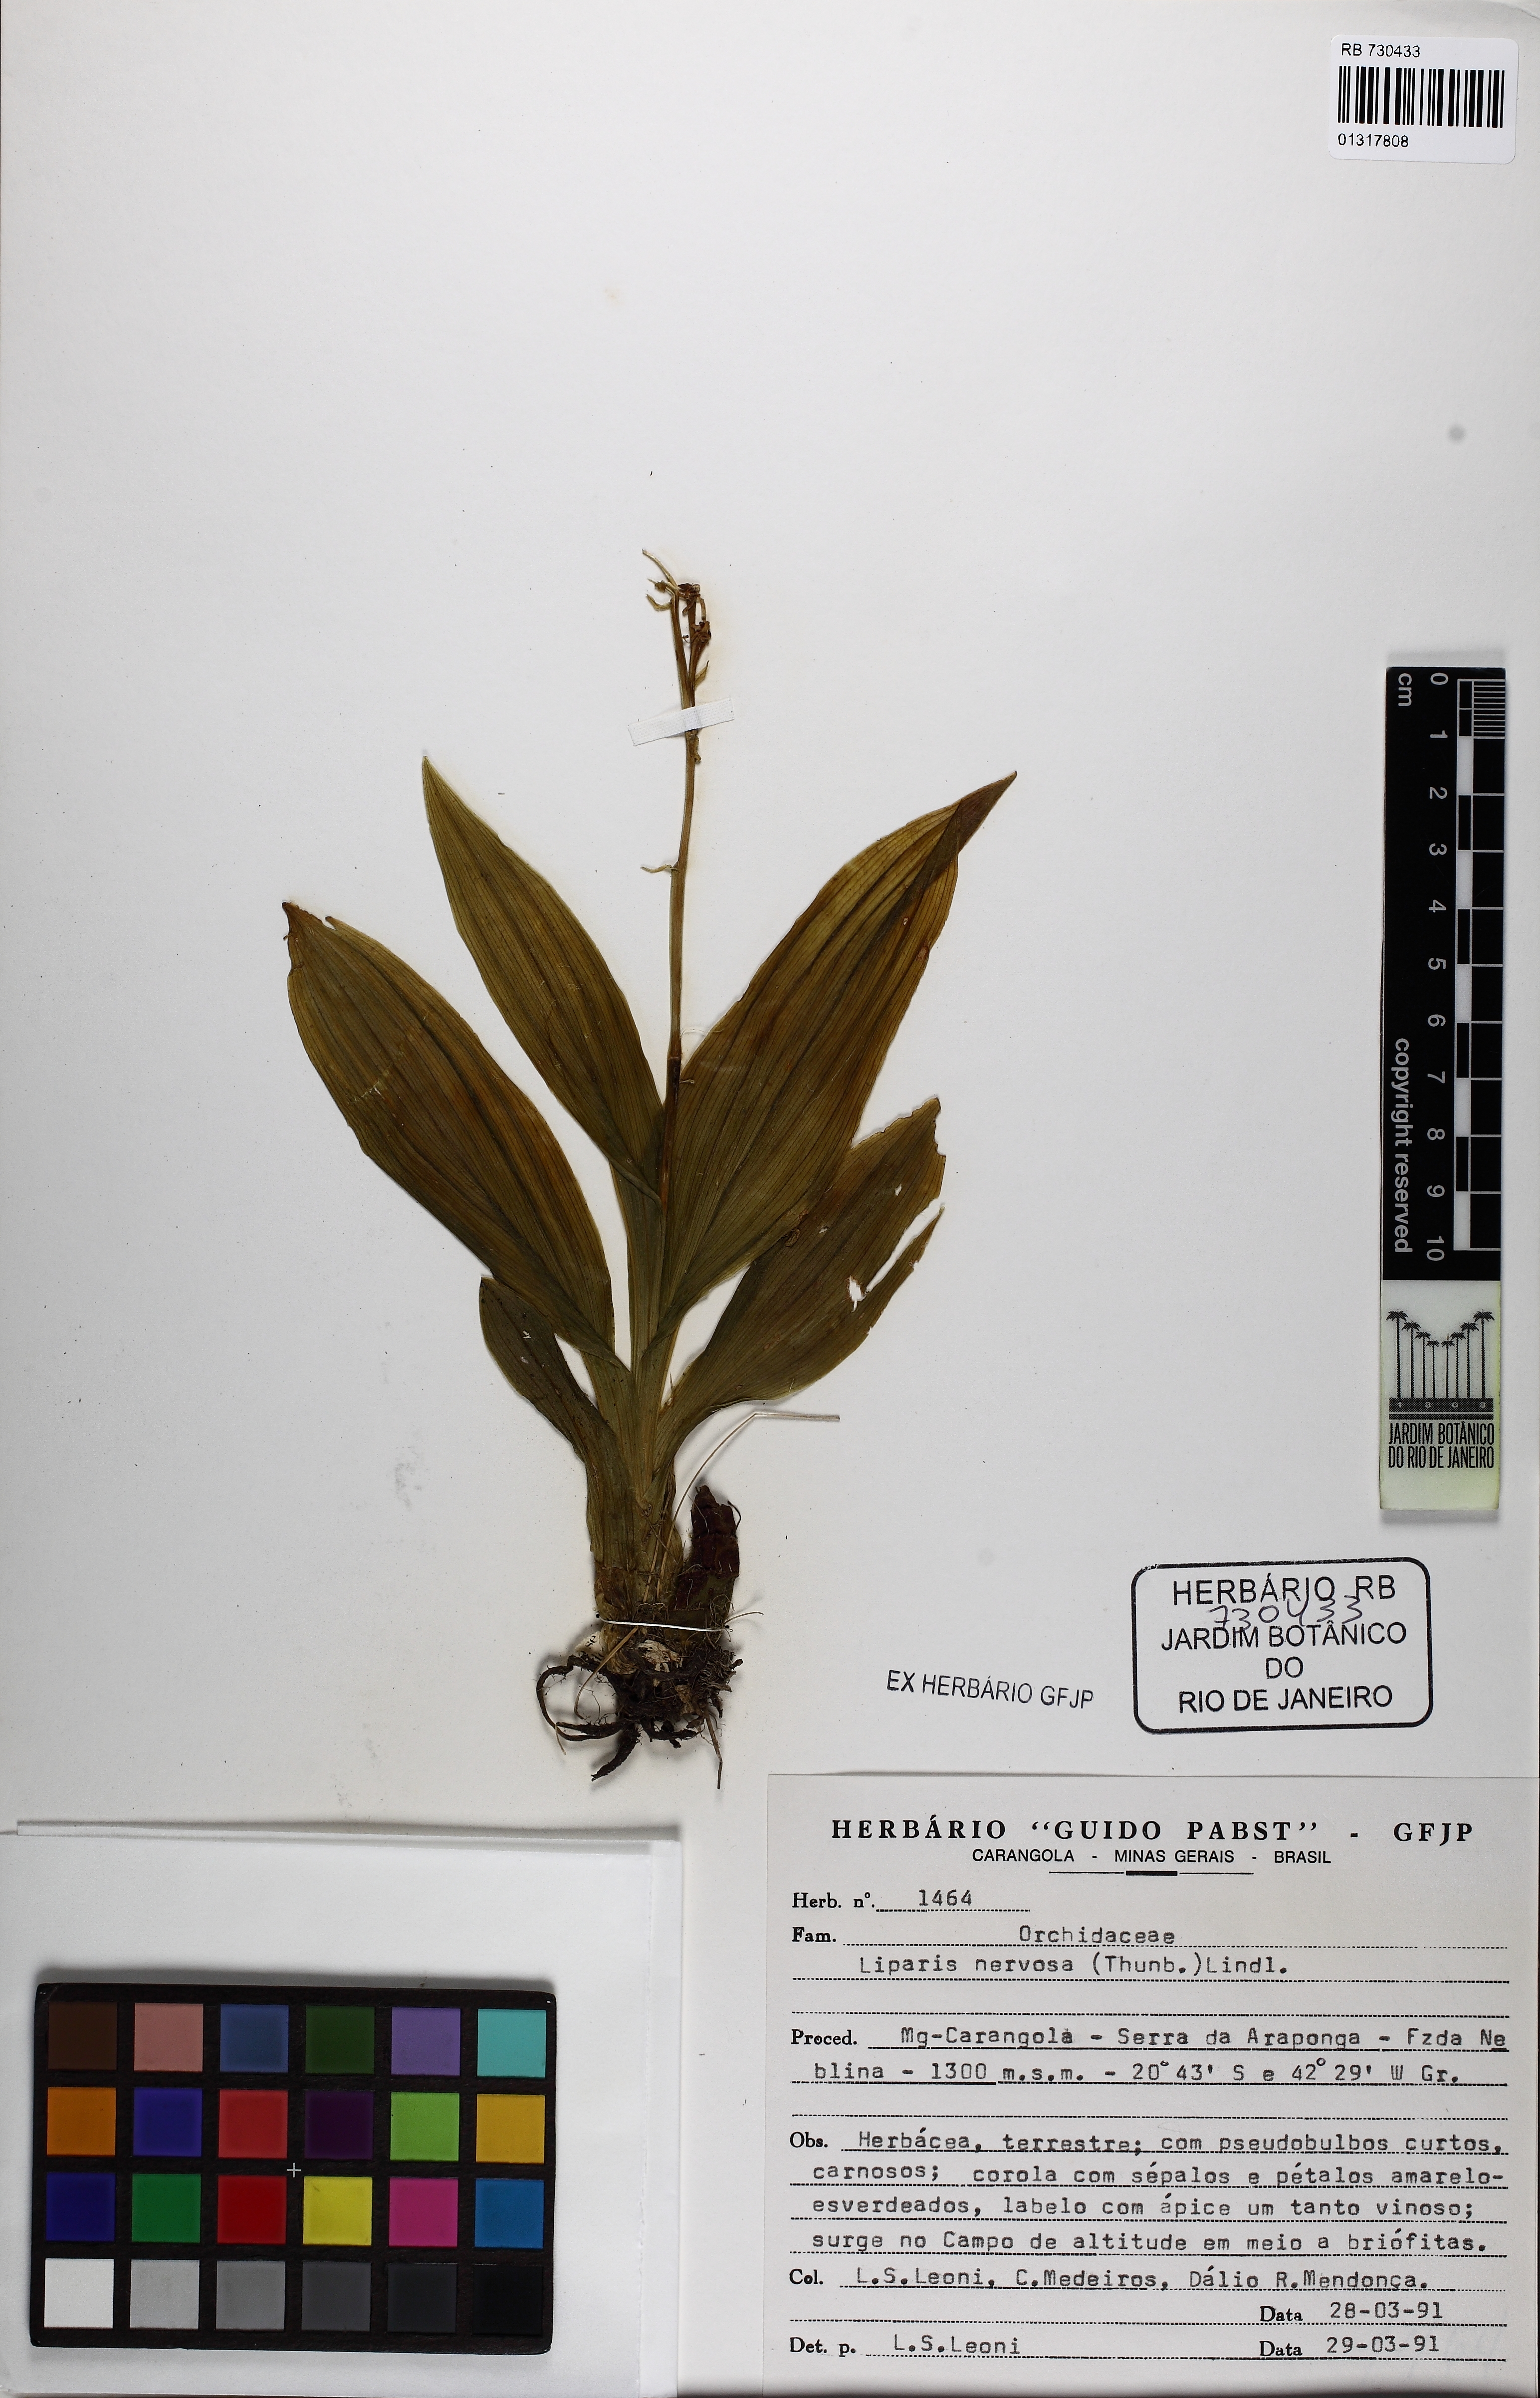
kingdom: Plantae
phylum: Tracheophyta
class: Liliopsida
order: Asparagales
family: Orchidaceae
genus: Liparis
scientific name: Liparis nervosa
